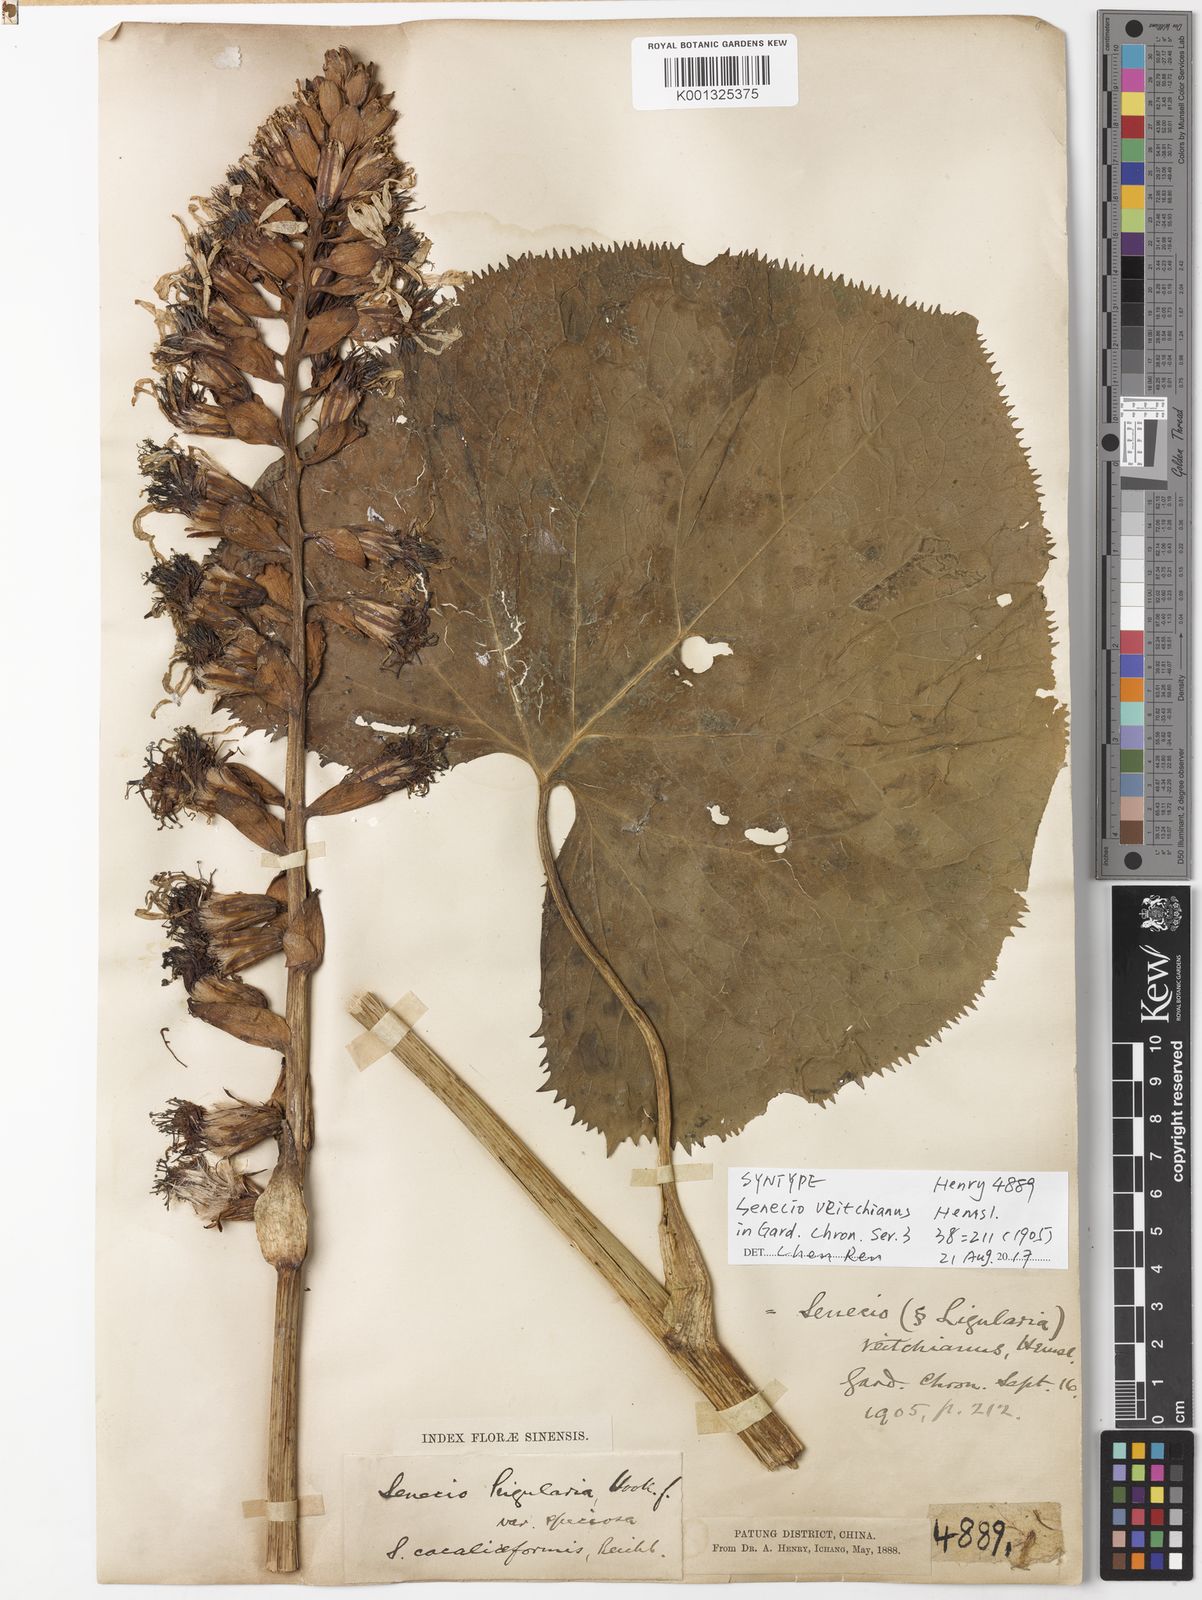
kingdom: Plantae
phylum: Tracheophyta
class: Magnoliopsida
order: Asterales
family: Asteraceae
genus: Ligularia
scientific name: Ligularia veitchiana
